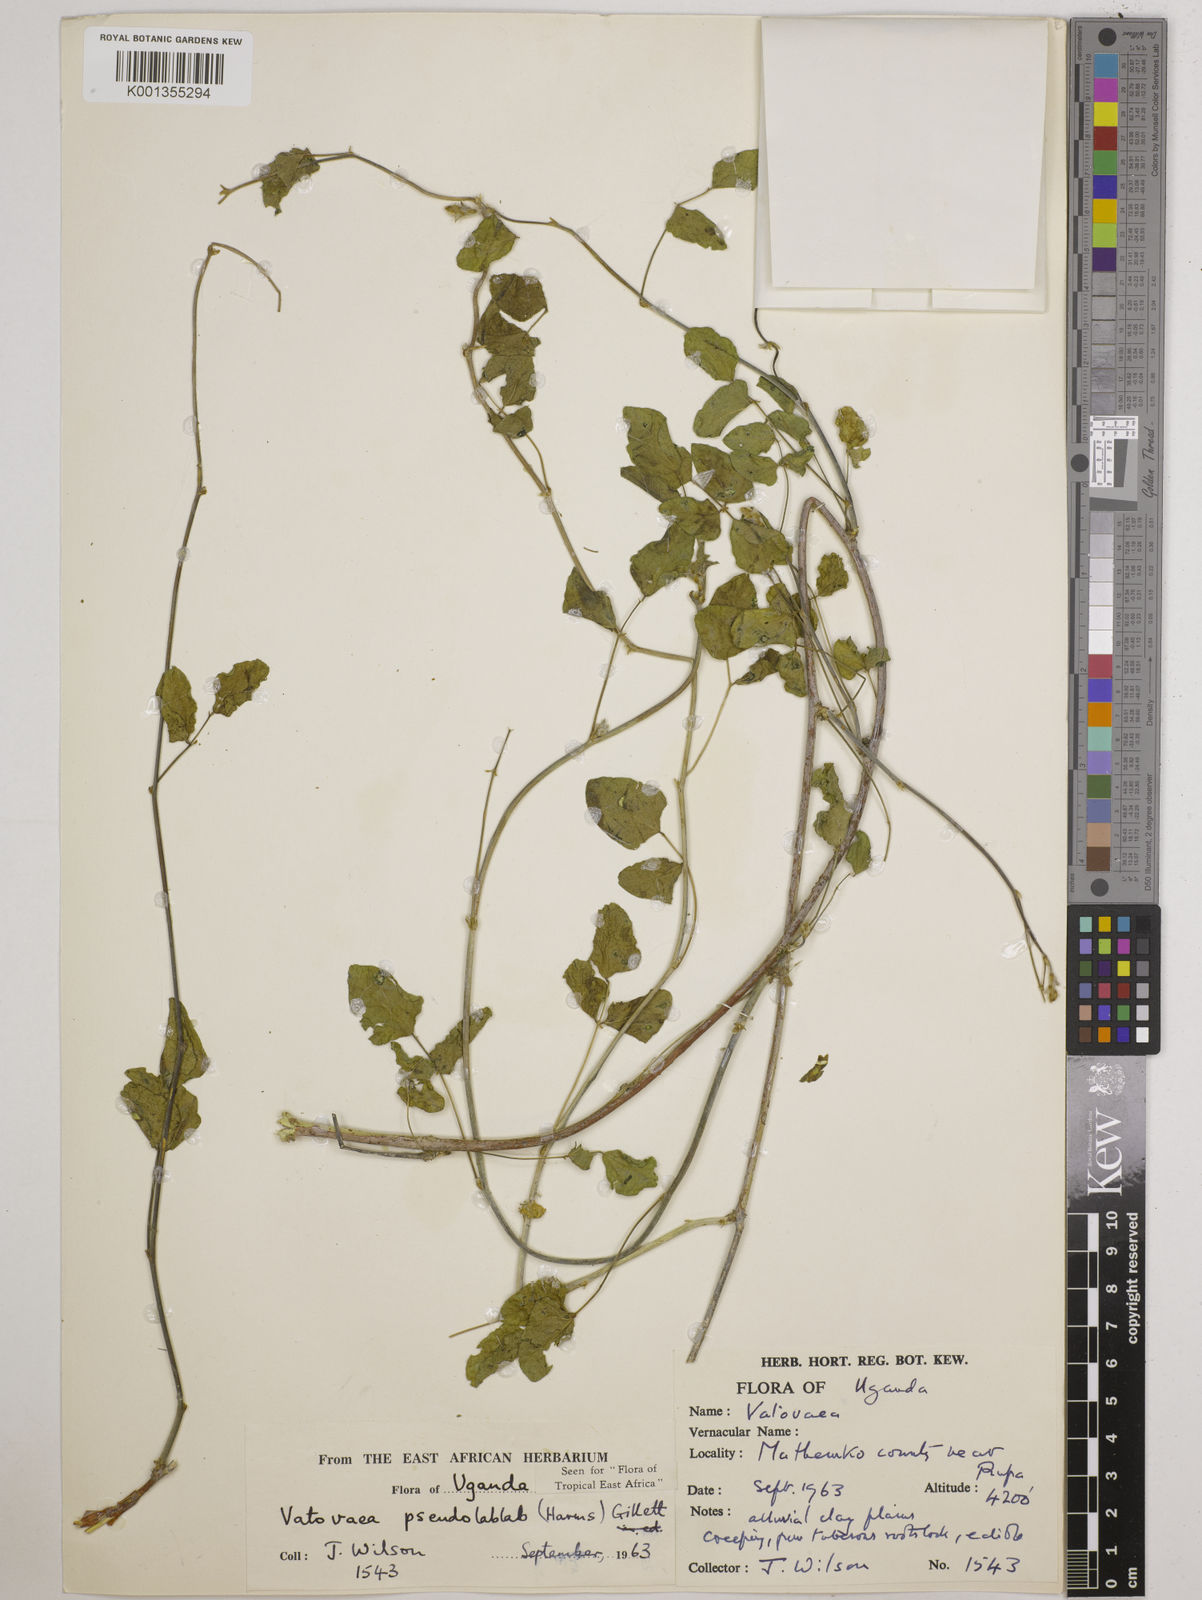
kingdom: Plantae
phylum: Tracheophyta
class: Magnoliopsida
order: Fabales
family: Fabaceae
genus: Vatovaea
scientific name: Vatovaea pseudolablab
